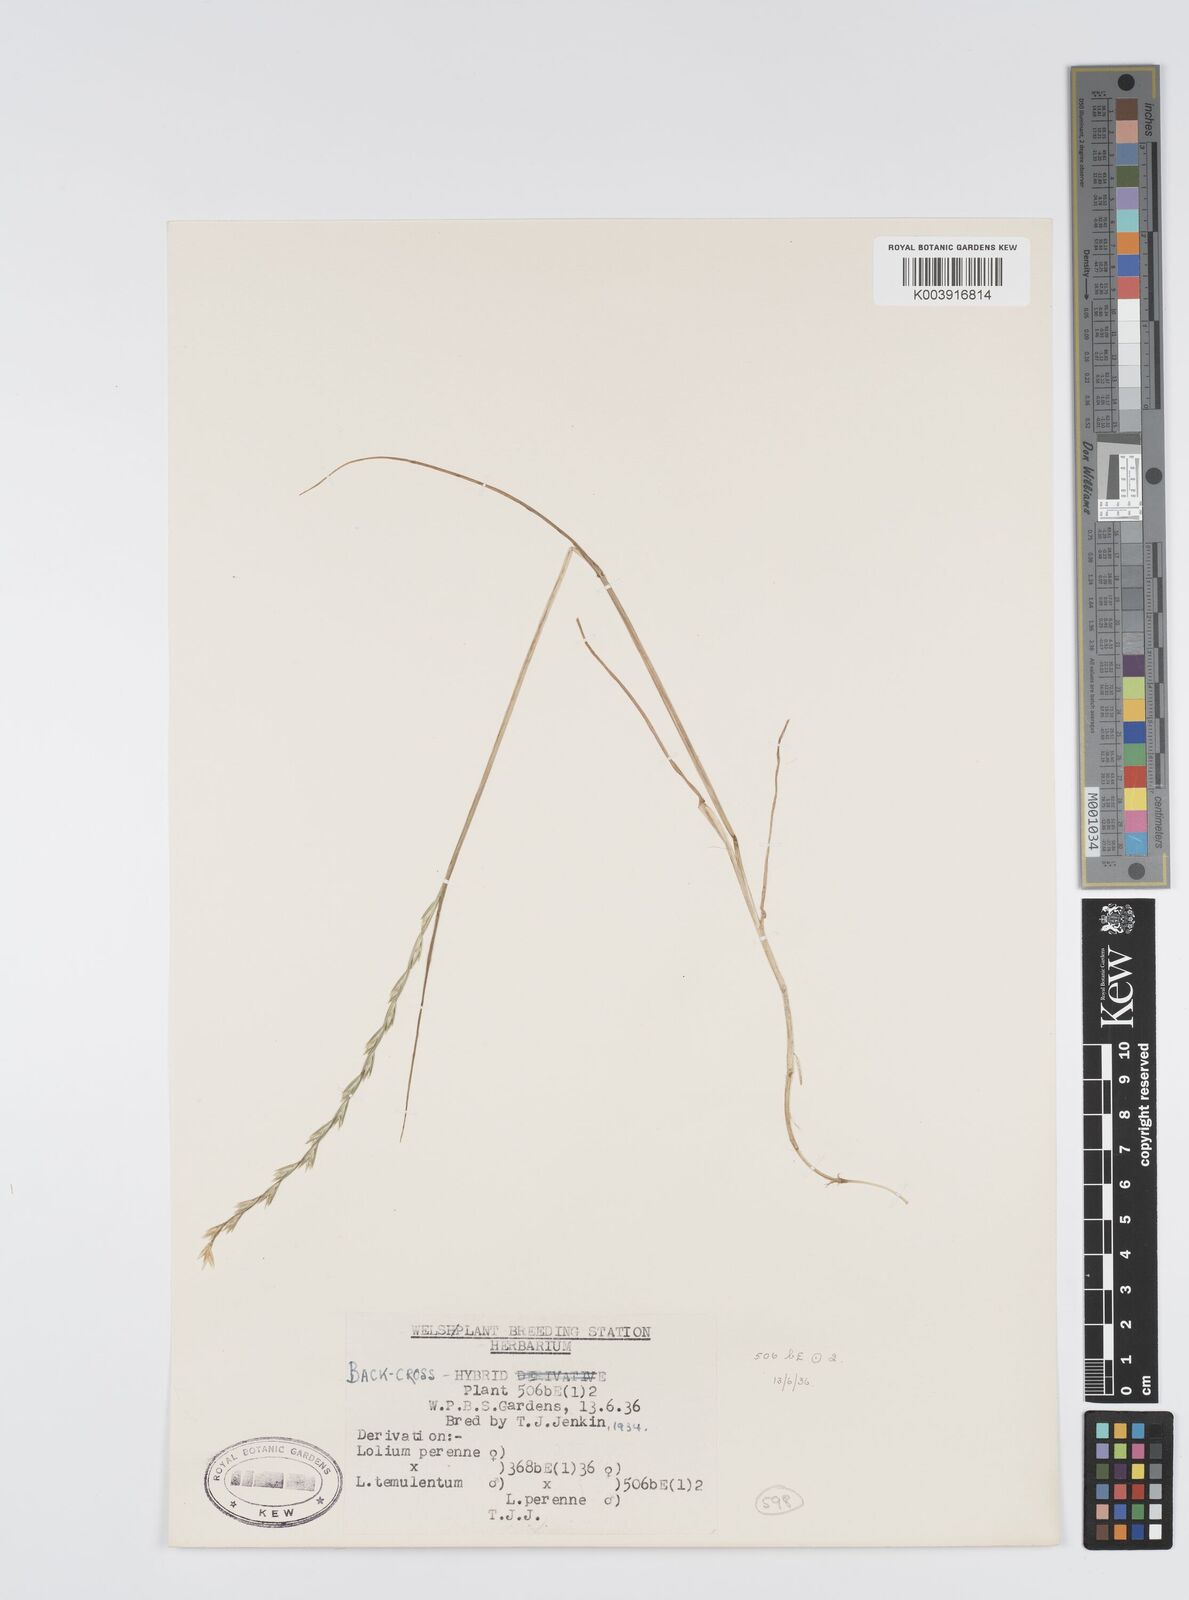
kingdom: Plantae
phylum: Tracheophyta
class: Liliopsida
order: Poales
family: Poaceae
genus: Lolium
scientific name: Lolium perenne
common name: Perennial ryegrass
